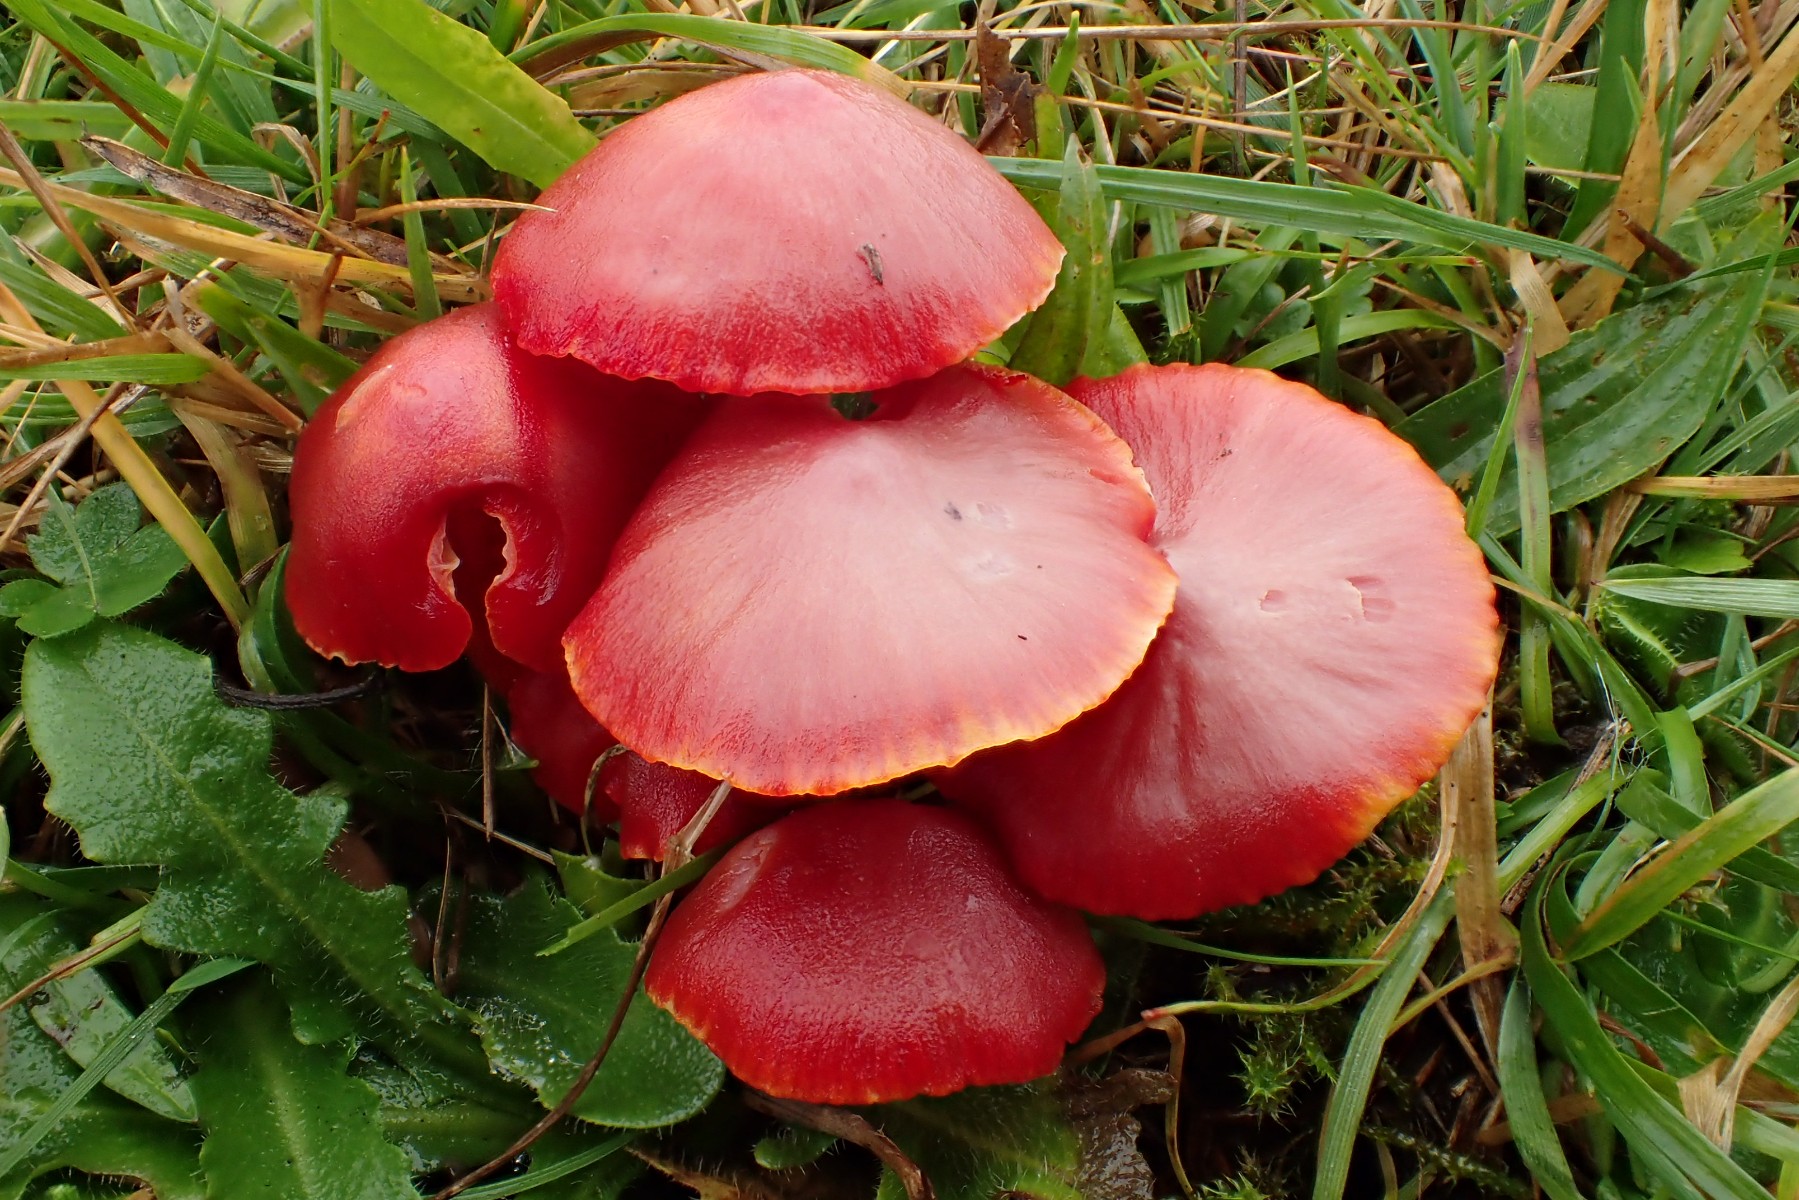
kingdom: Fungi
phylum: Basidiomycota
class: Agaricomycetes
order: Agaricales
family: Hygrophoraceae
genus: Hygrocybe
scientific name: Hygrocybe coccinea
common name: cinnober-vokshat
